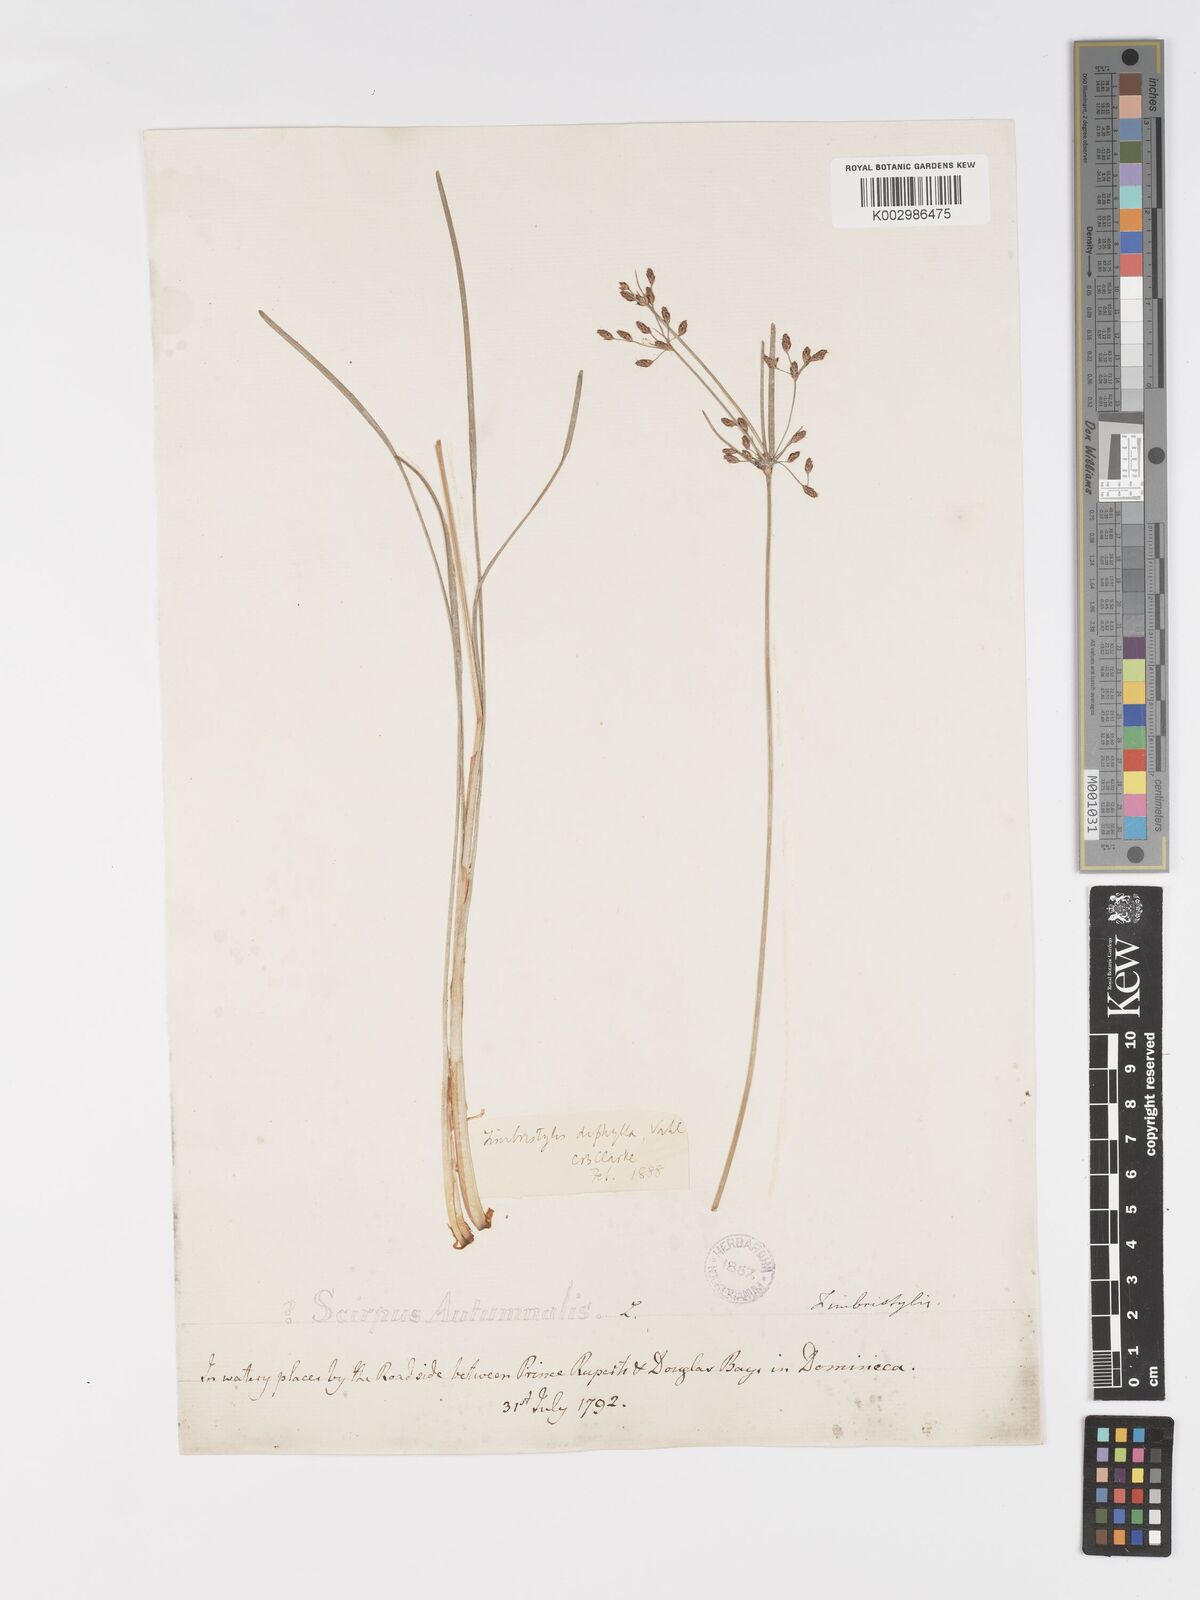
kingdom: Plantae
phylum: Tracheophyta
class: Liliopsida
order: Poales
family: Cyperaceae
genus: Fimbristylis
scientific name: Fimbristylis dichotoma
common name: Forked fimbry
